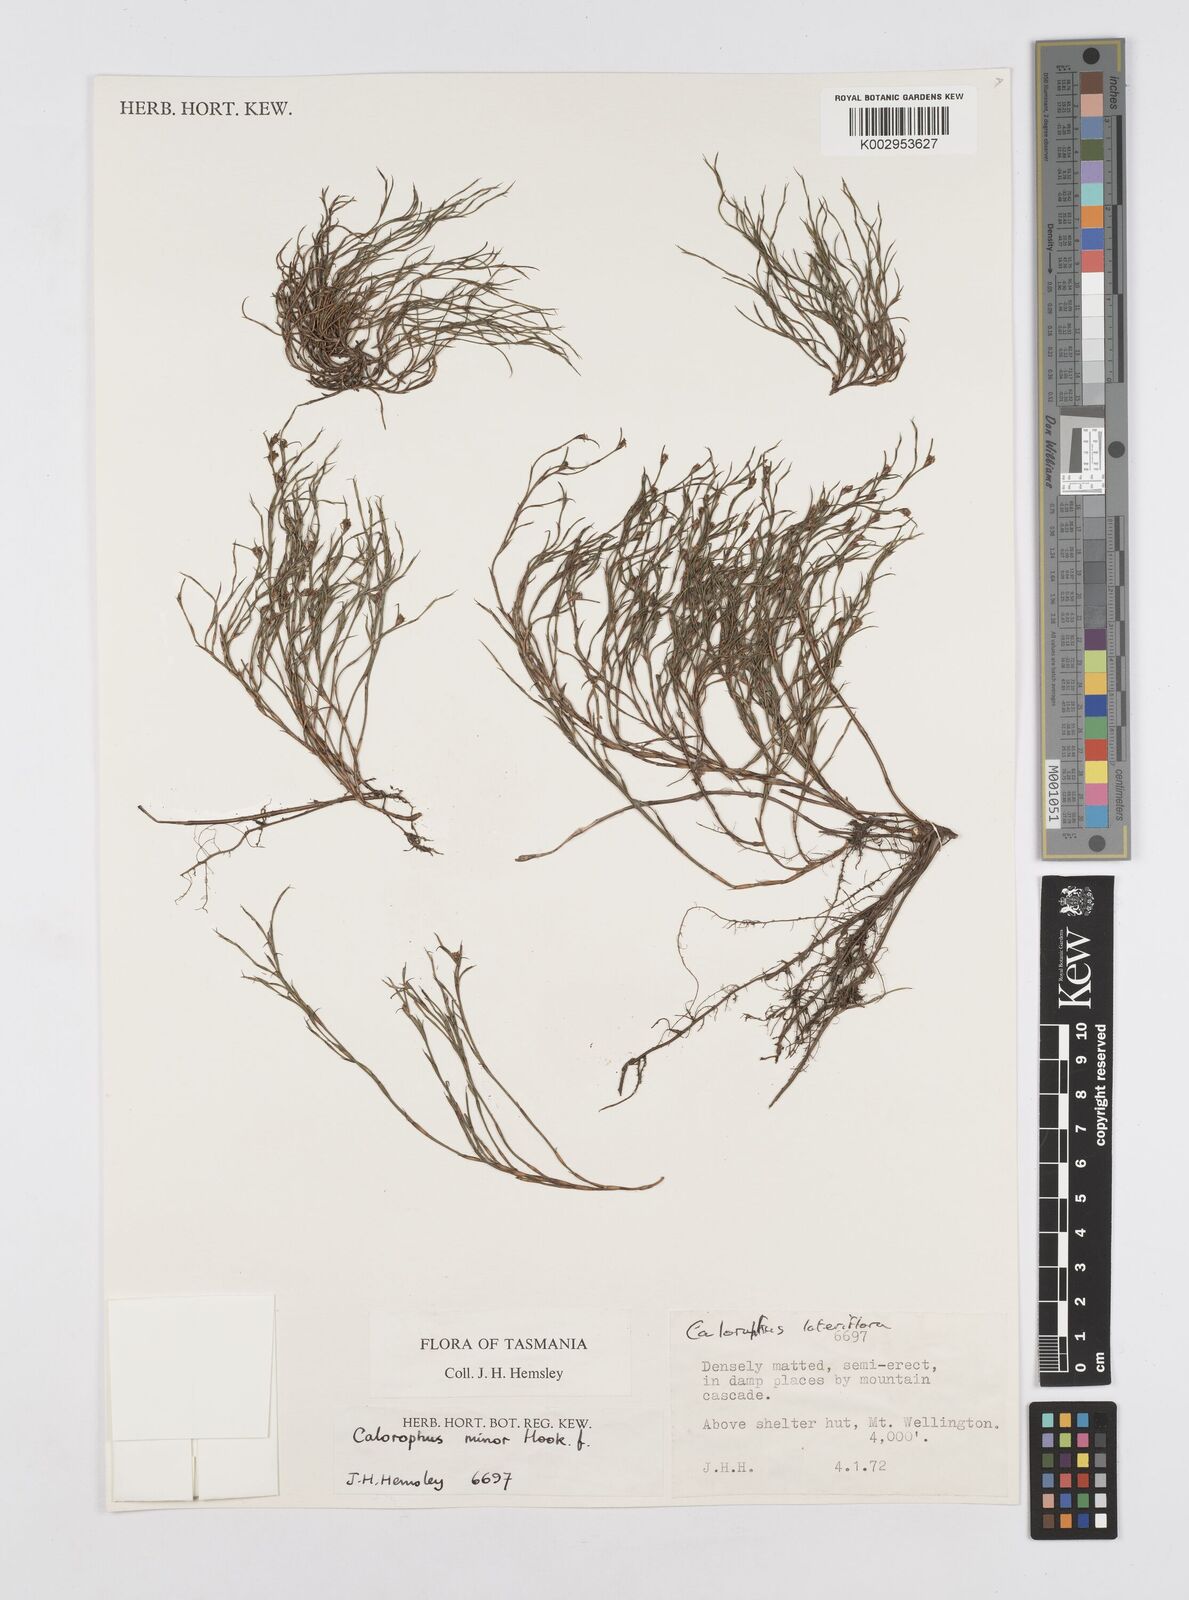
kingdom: Plantae
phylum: Tracheophyta
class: Liliopsida
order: Poales
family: Restionaceae
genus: Empodisma
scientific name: Empodisma minus
